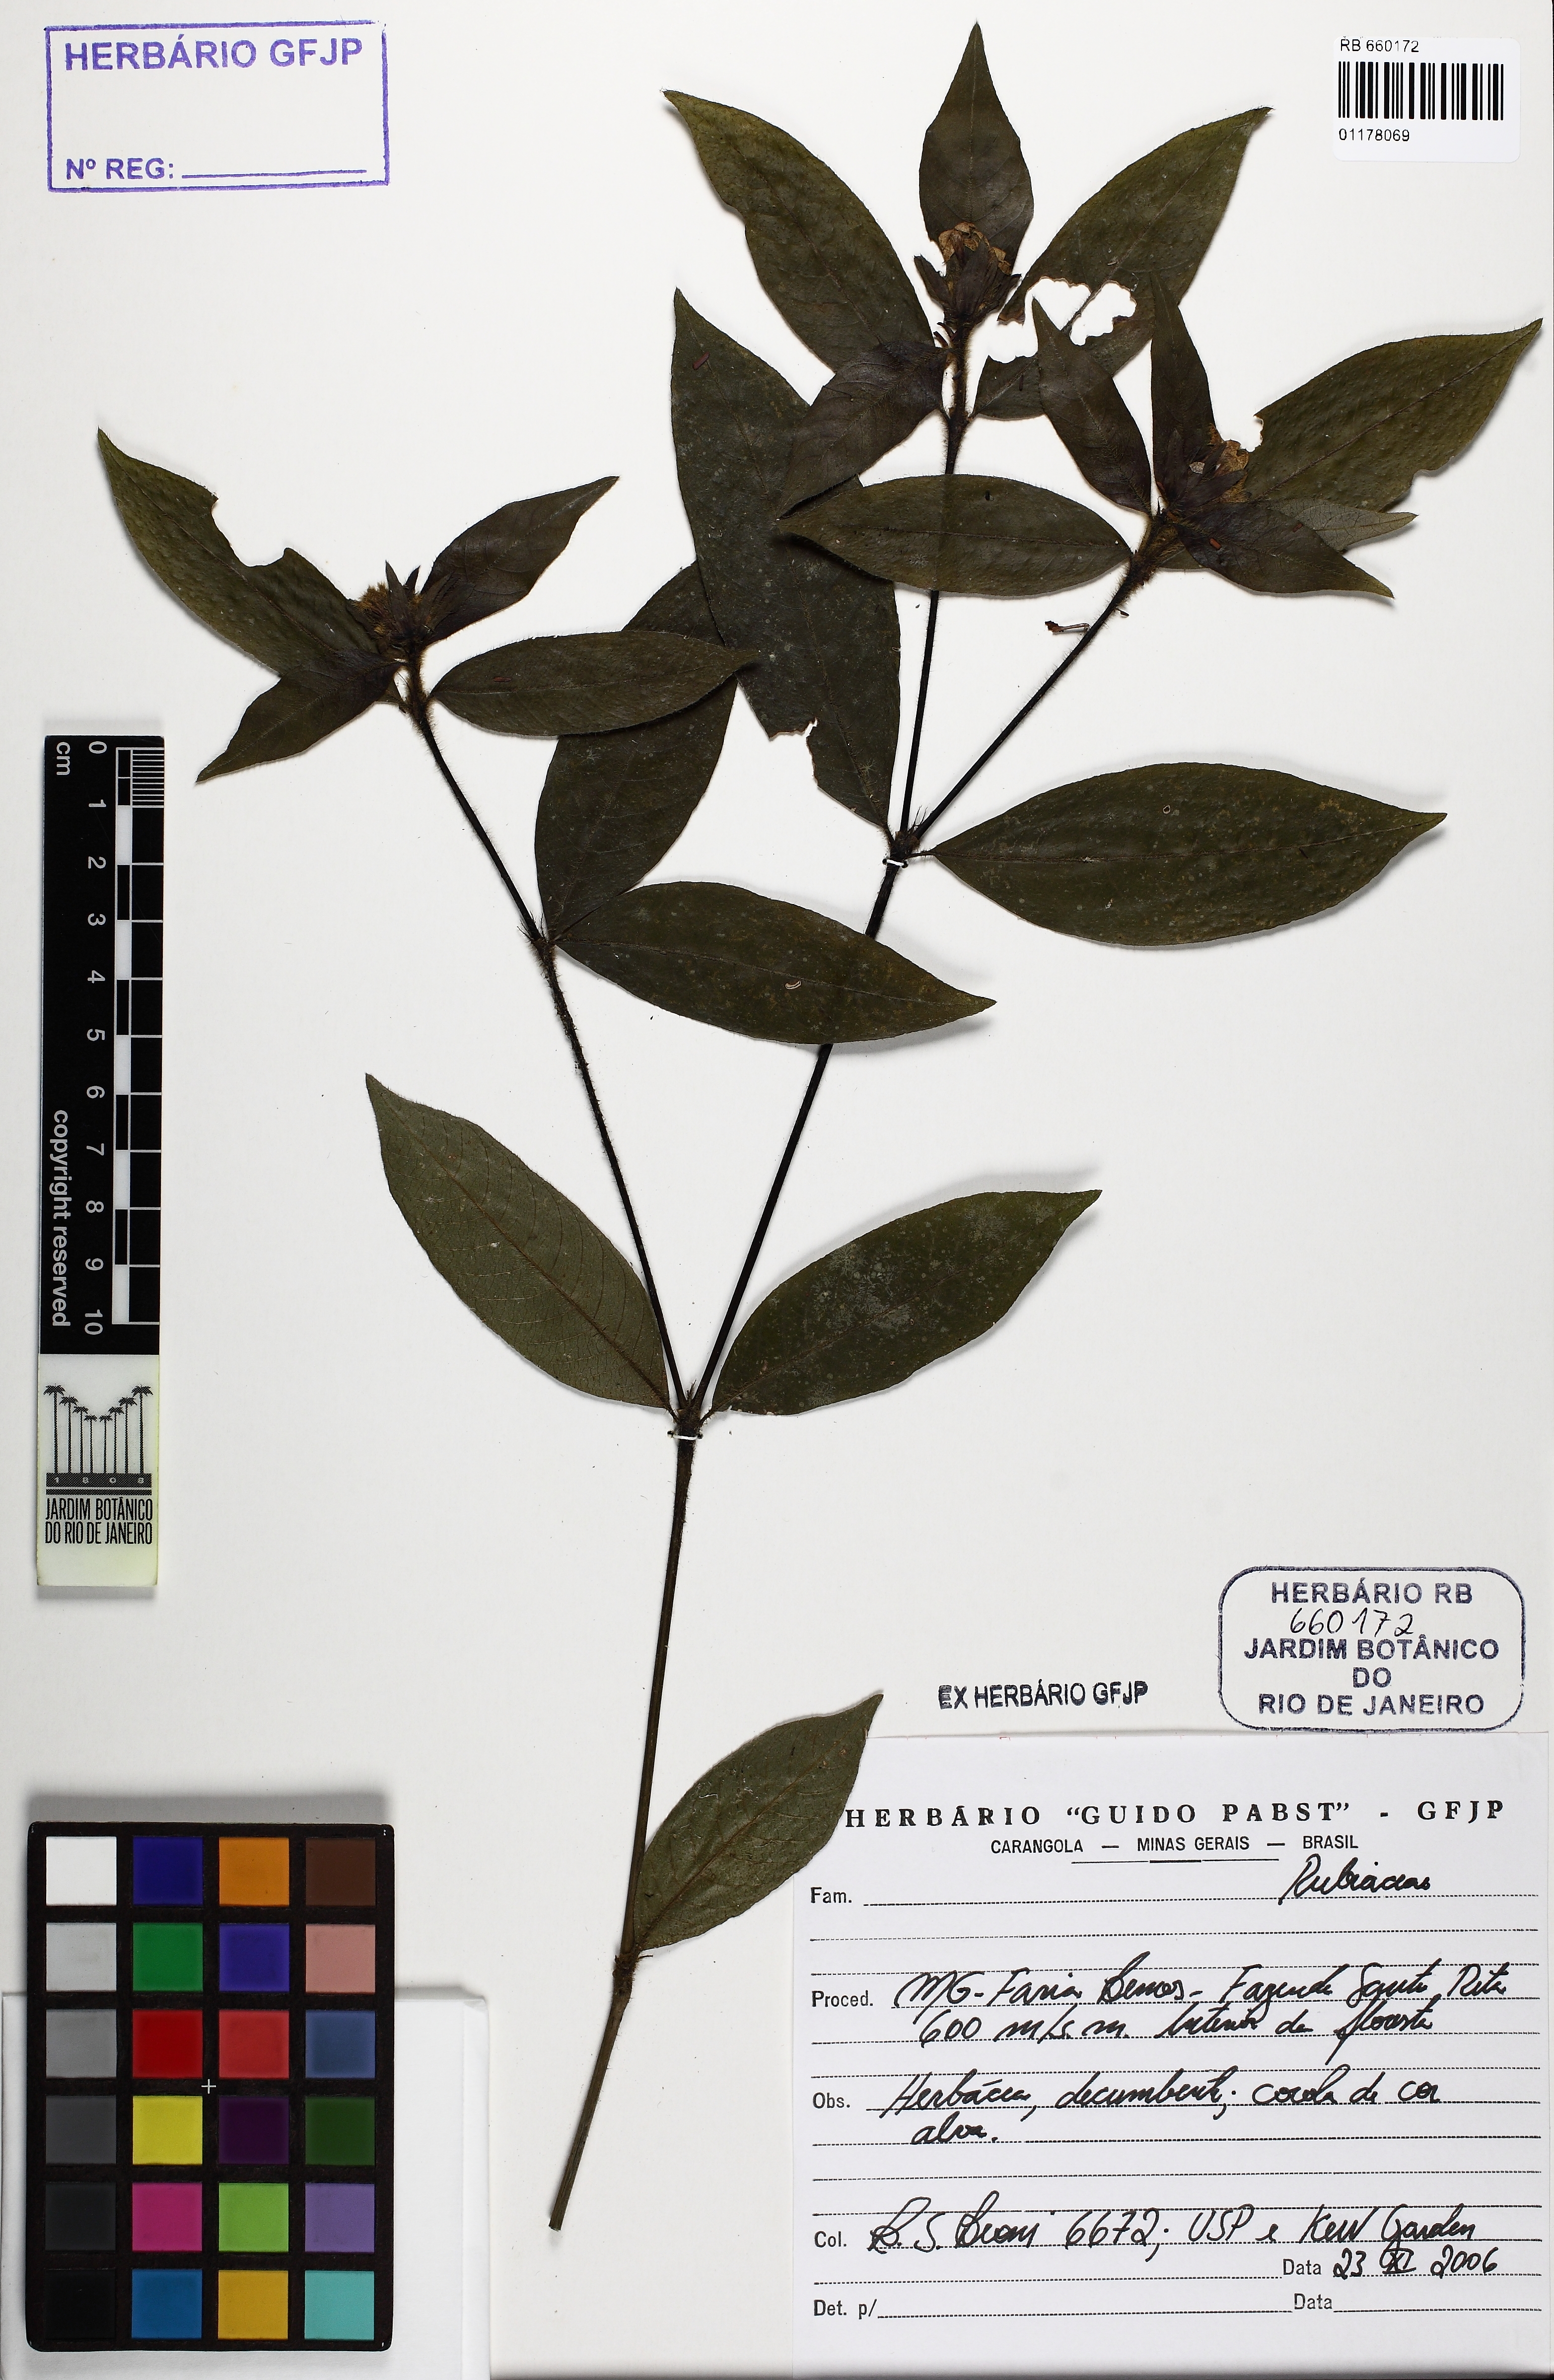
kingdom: Plantae
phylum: Tracheophyta
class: Magnoliopsida
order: Gentianales
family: Rubiaceae
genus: Palicourea
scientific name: Palicourea iodotricha
